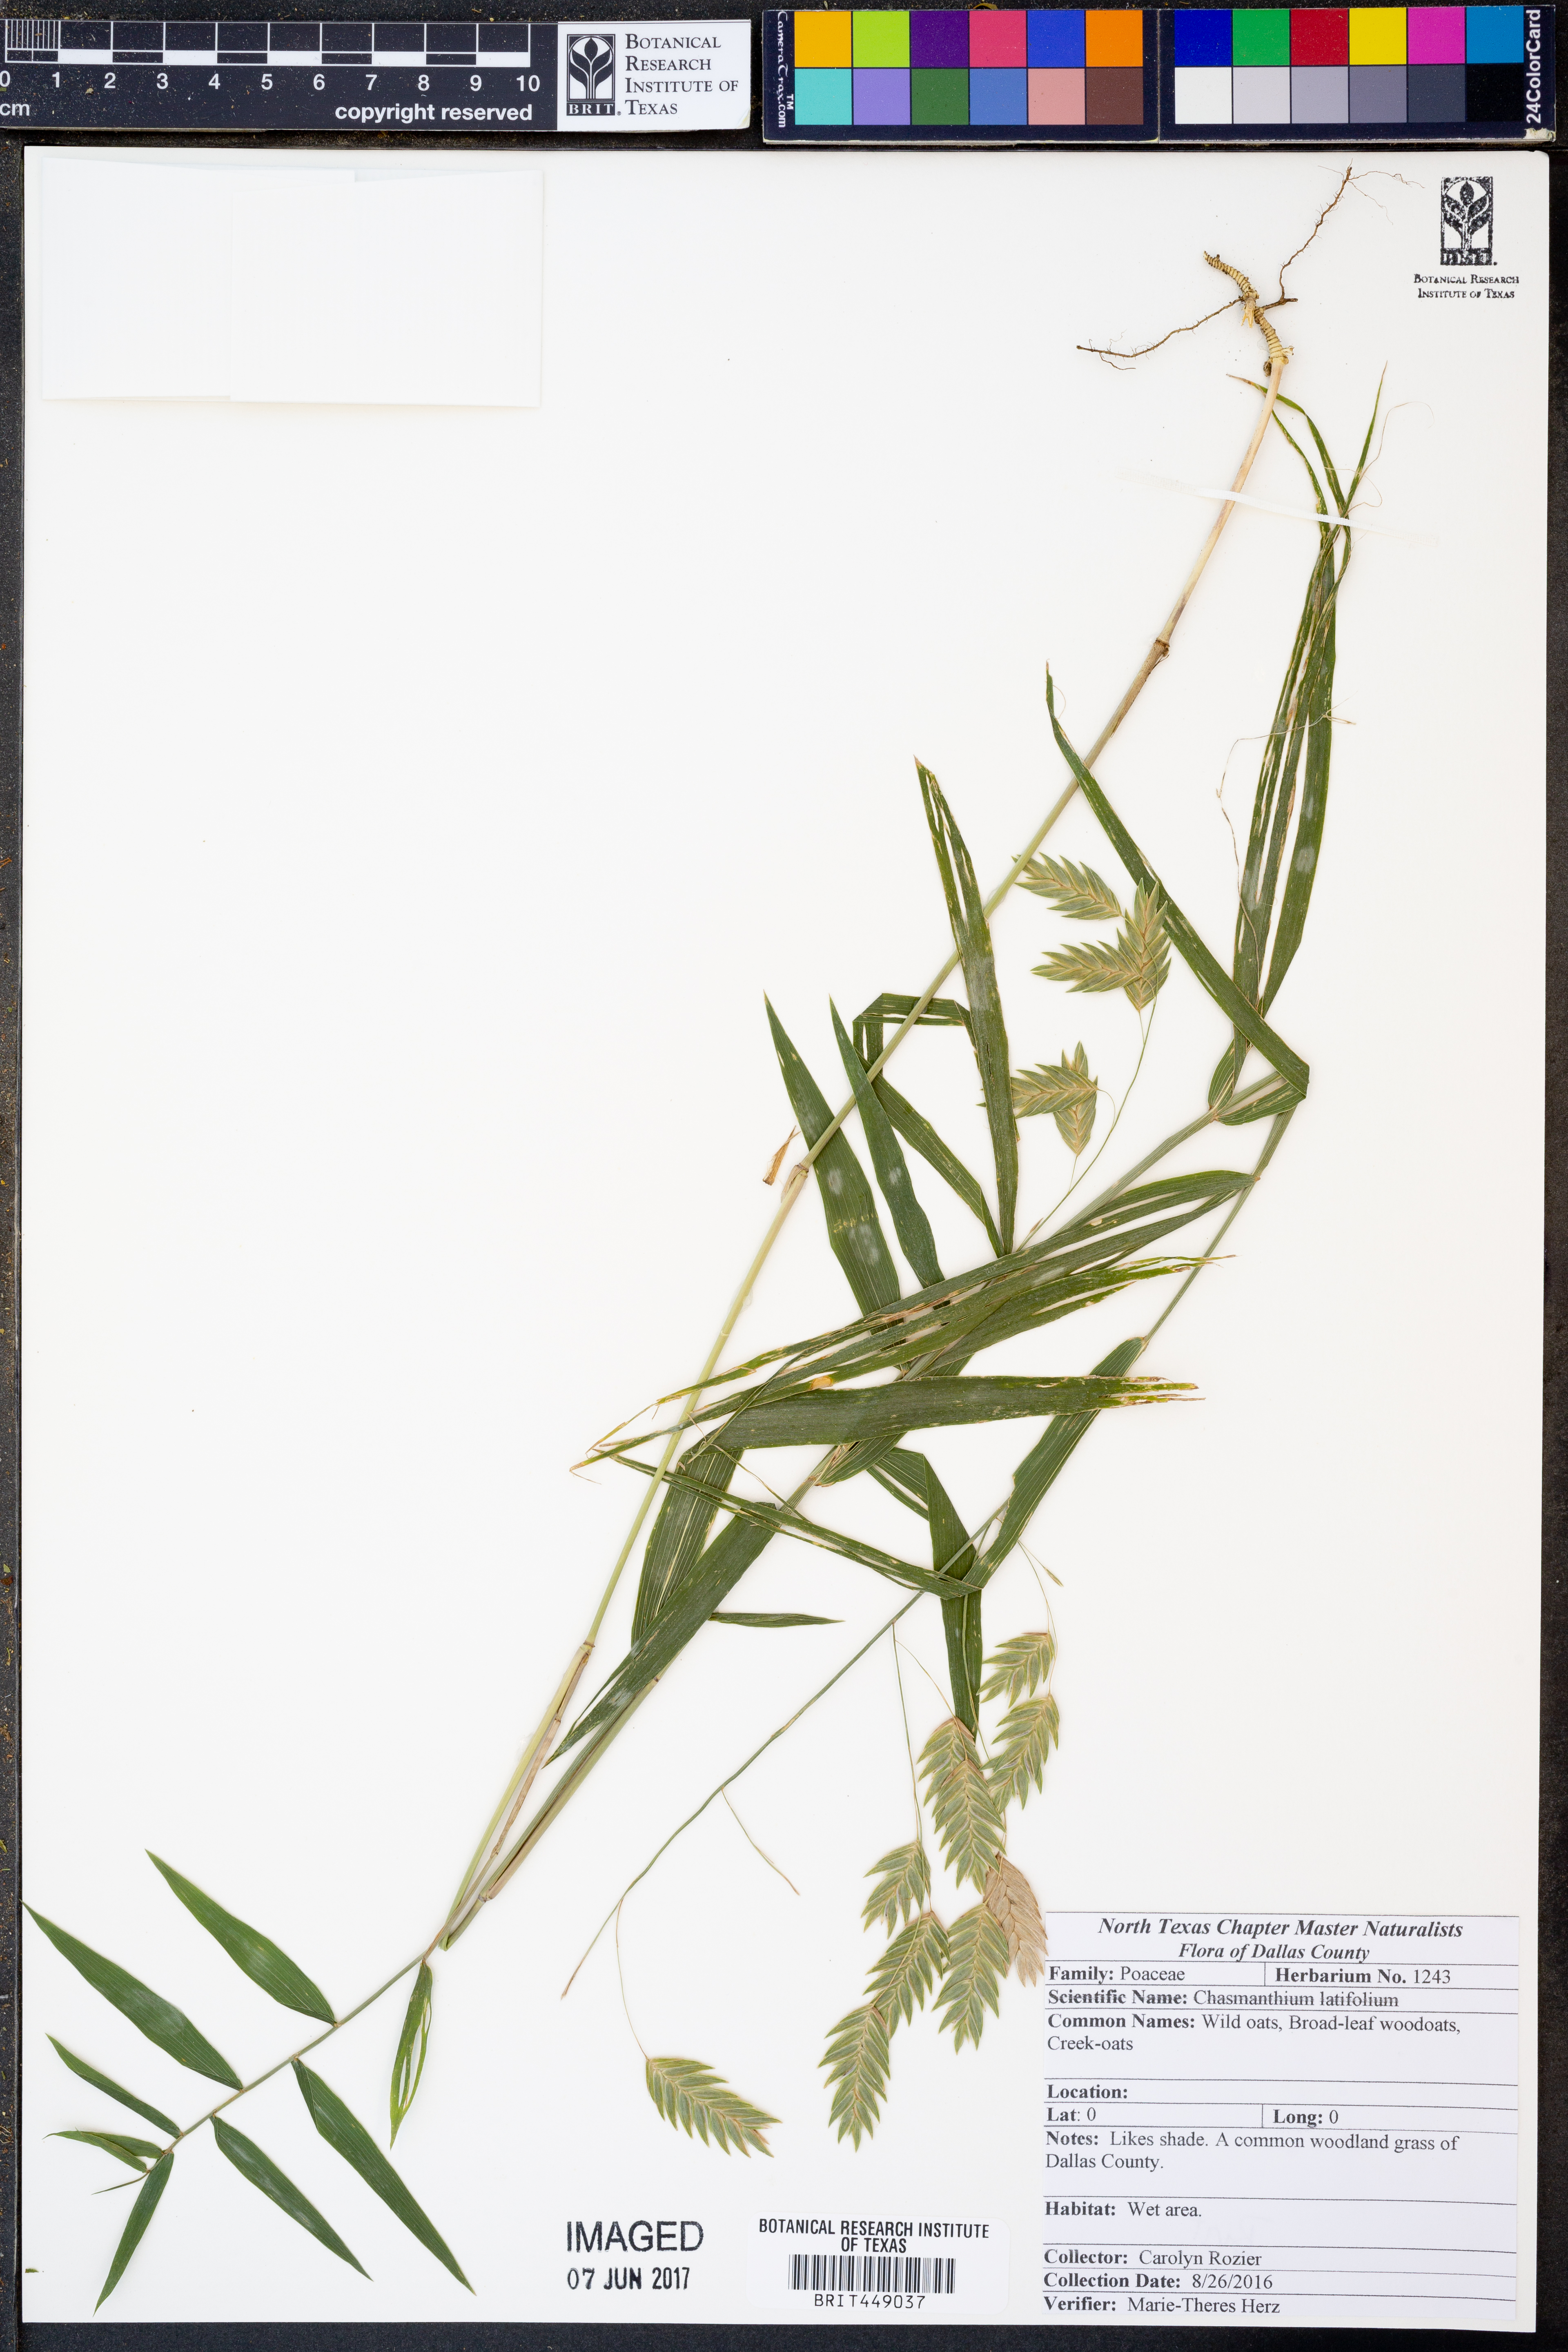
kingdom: Plantae
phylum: Tracheophyta
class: Liliopsida
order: Poales
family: Poaceae
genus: Chasmanthium
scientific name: Chasmanthium latifolium
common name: Broad-leaved chasmanthium
